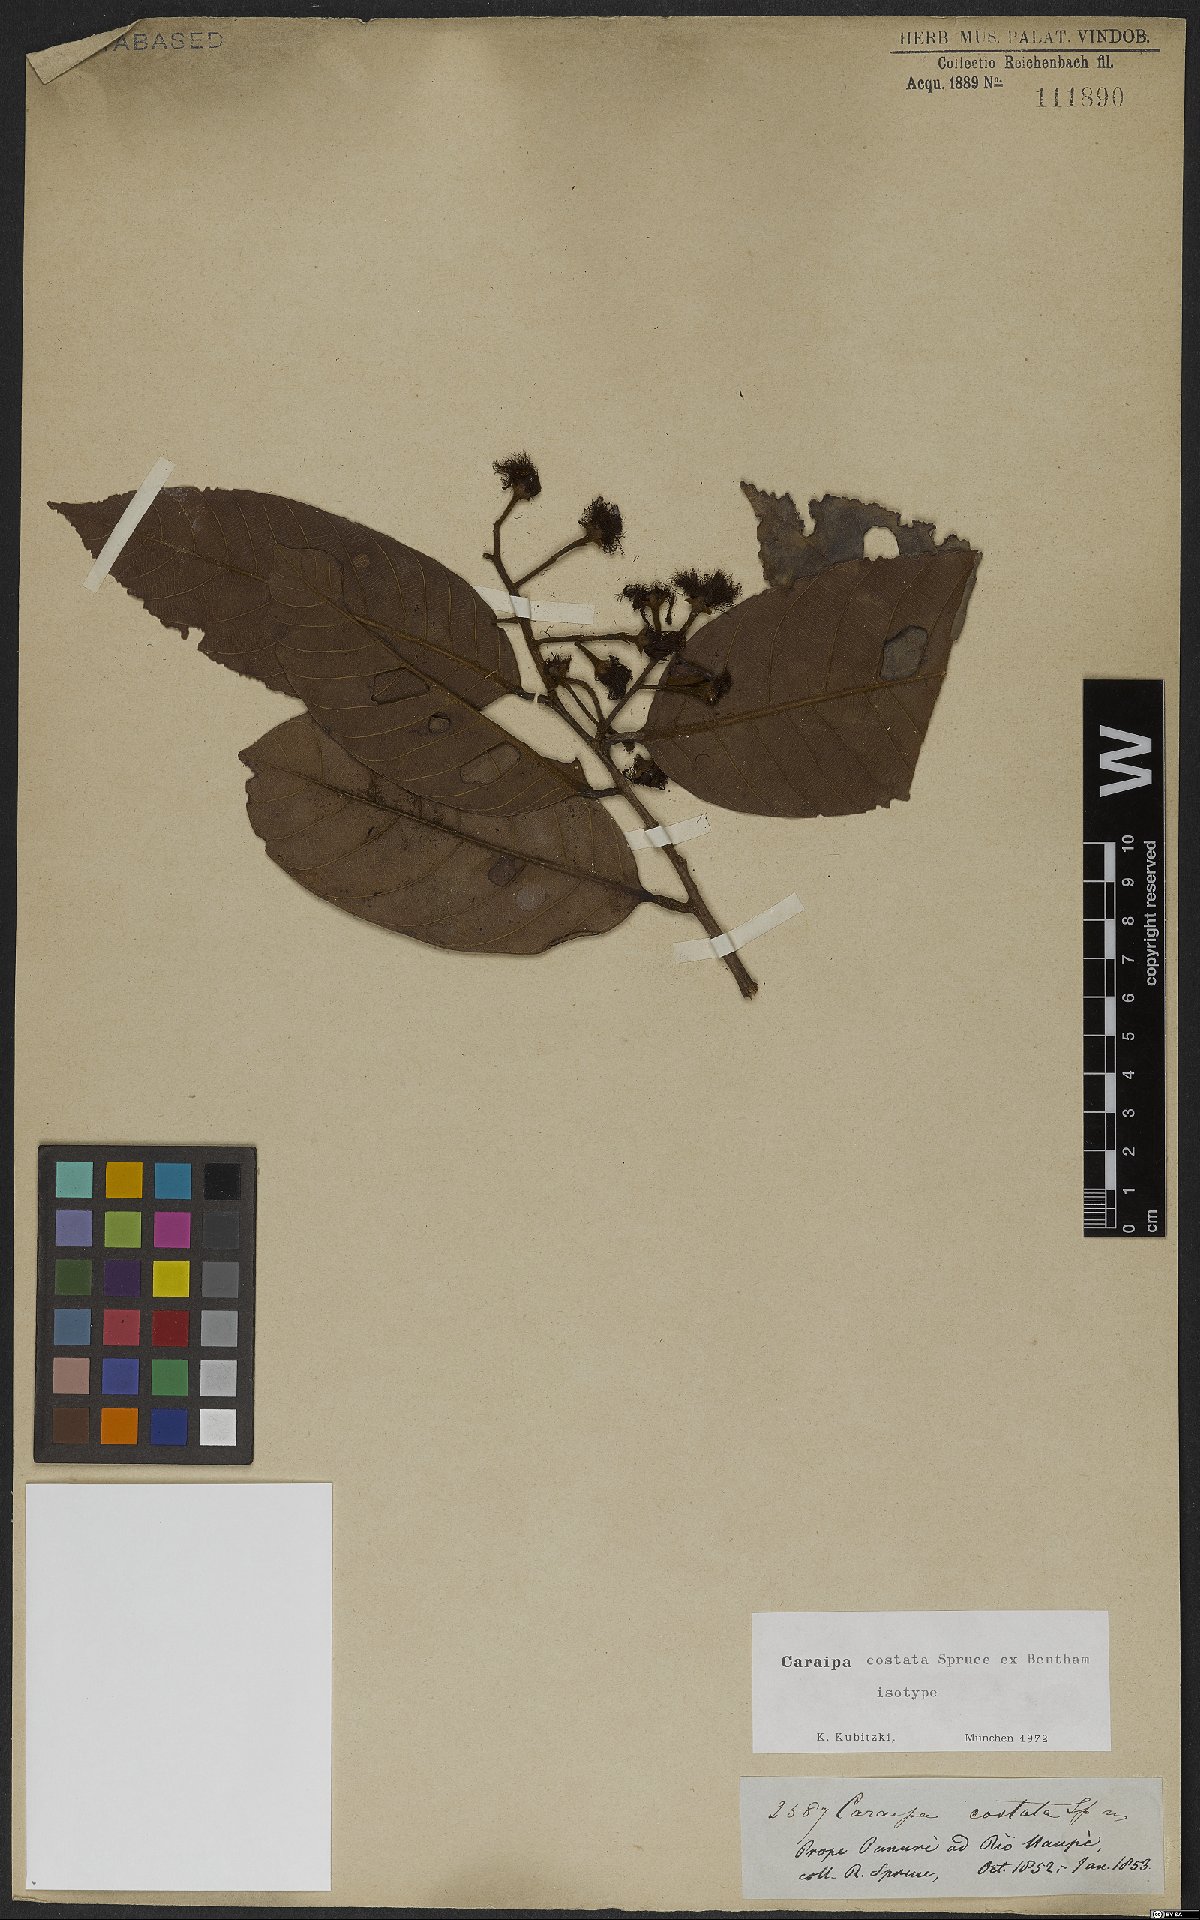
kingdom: Plantae
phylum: Tracheophyta
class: Magnoliopsida
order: Malpighiales
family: Calophyllaceae
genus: Caraipa
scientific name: Caraipa costata
